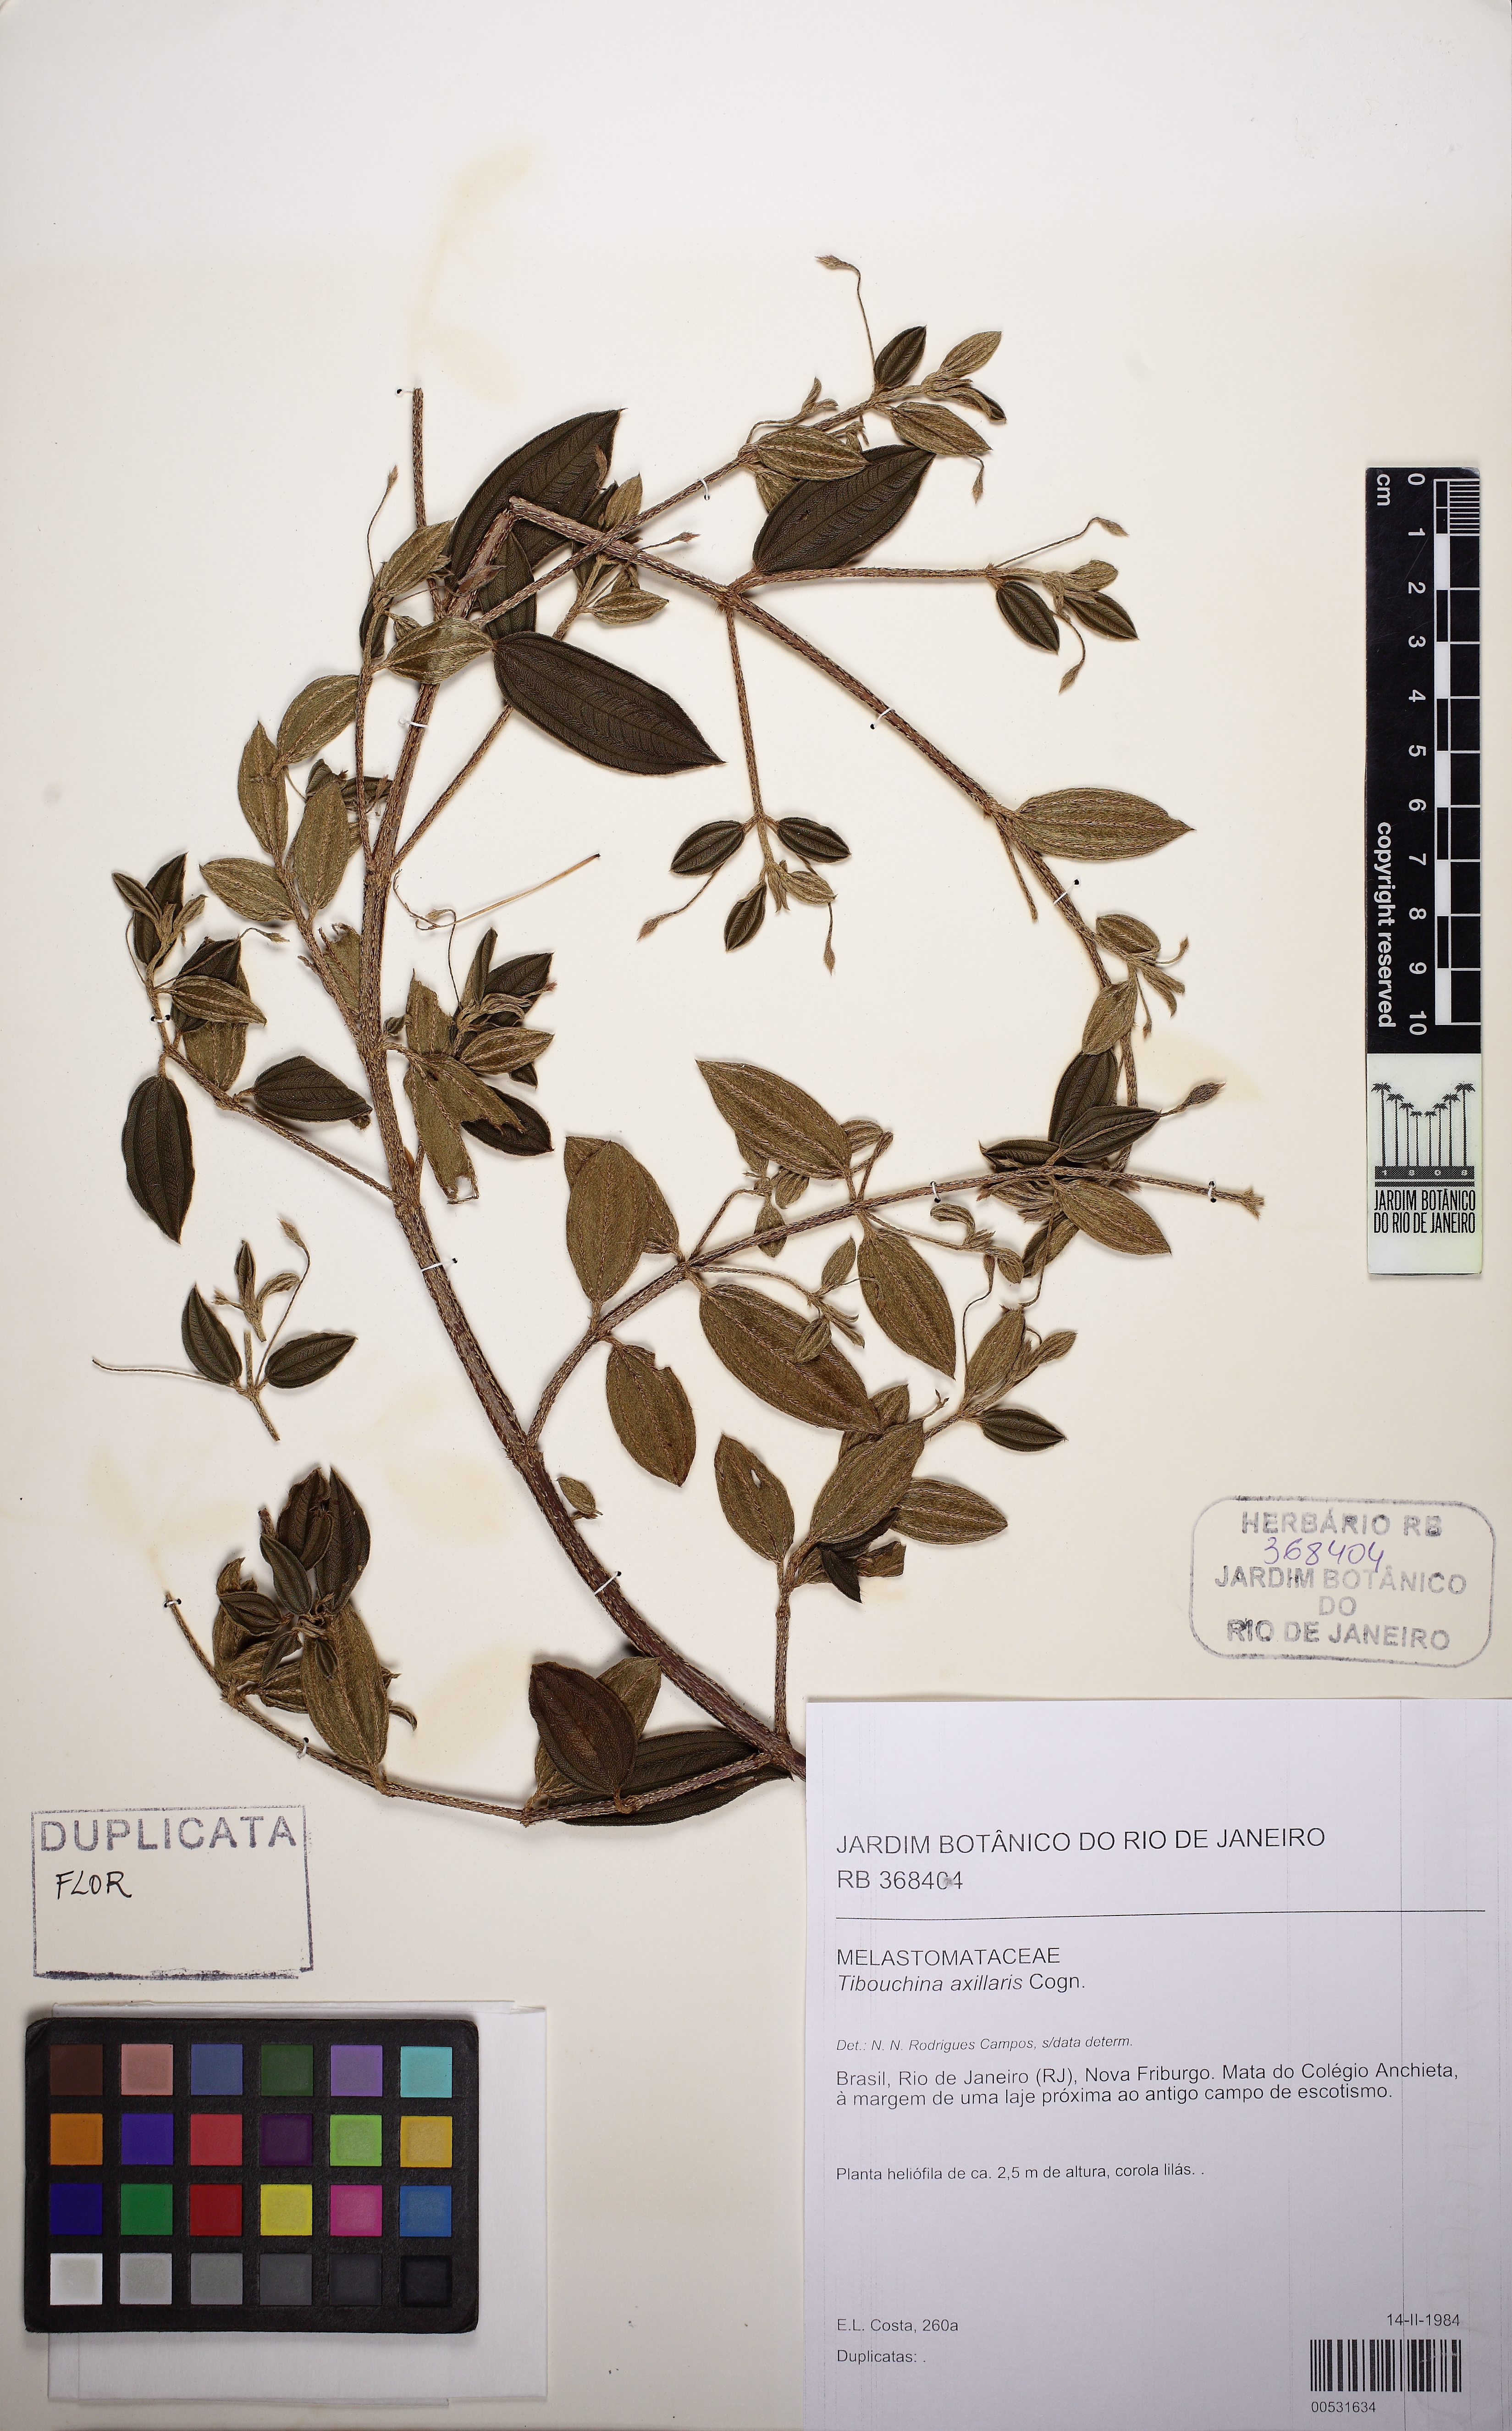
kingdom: Plantae
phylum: Tracheophyta
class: Magnoliopsida
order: Myrtales
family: Melastomataceae
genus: Pleroma
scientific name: Pleroma axillare
